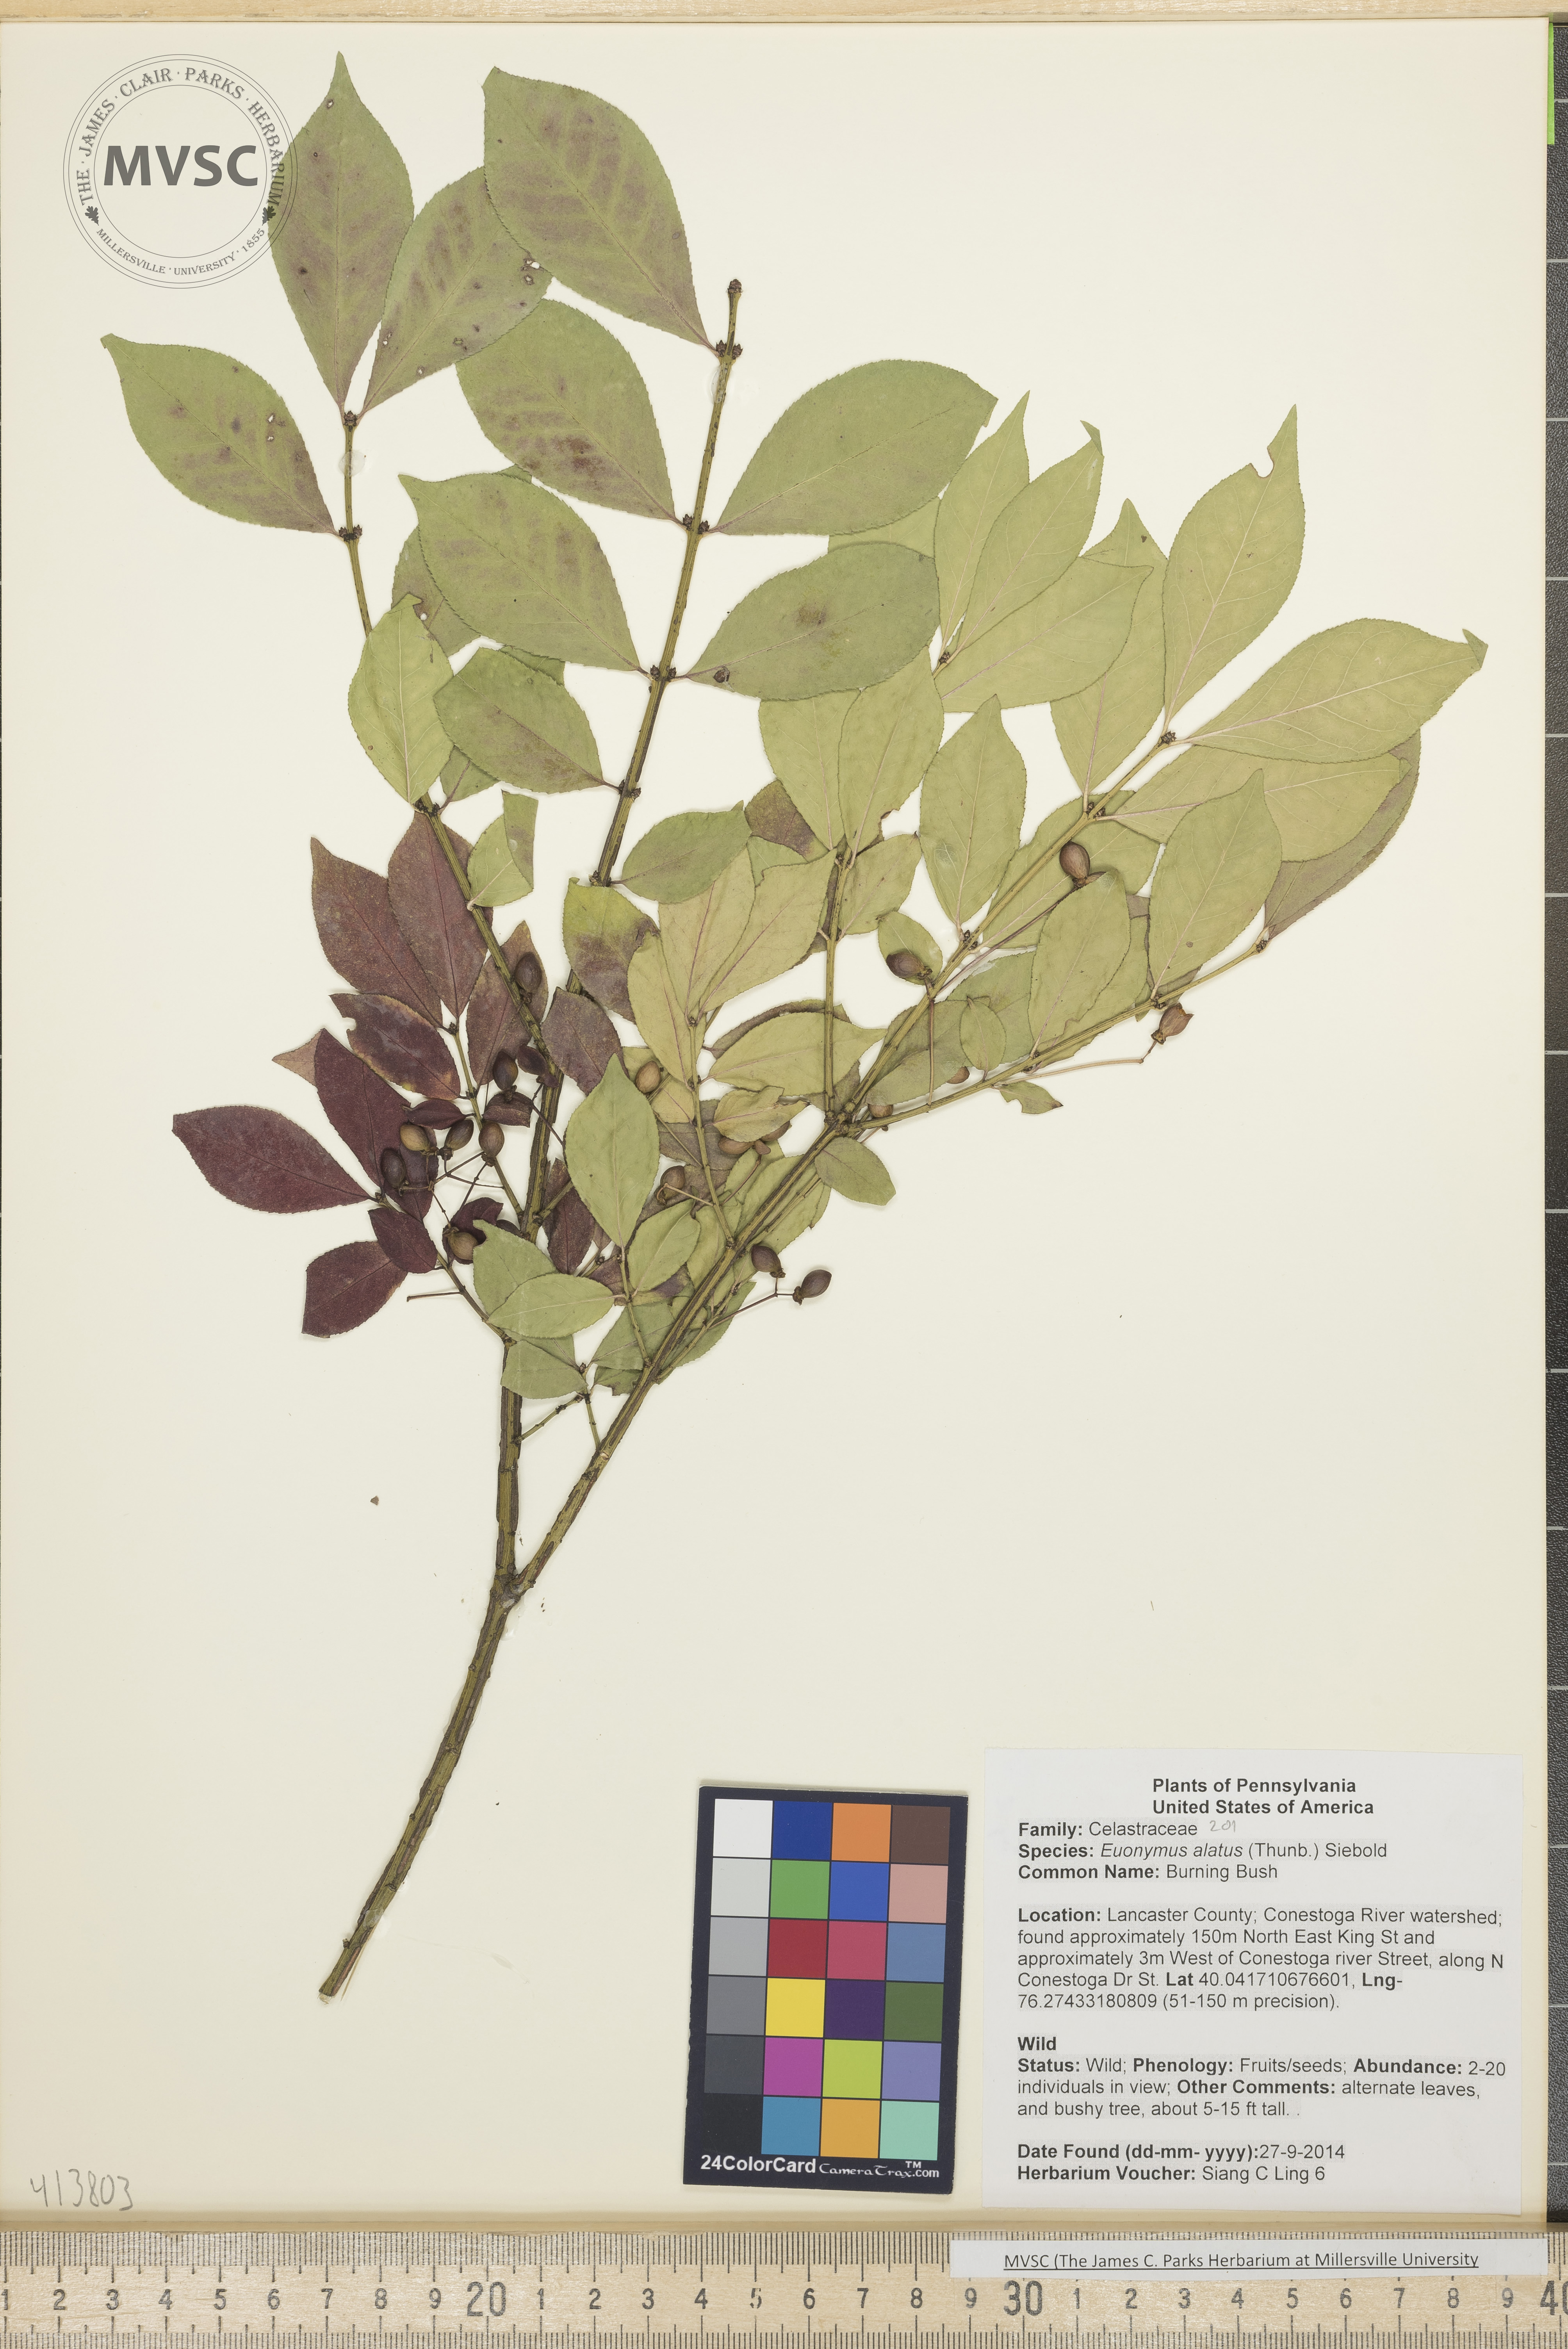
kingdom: Plantae
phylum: Tracheophyta
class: Magnoliopsida
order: Celastrales
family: Celastraceae
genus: Euonymus
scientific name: Euonymus alatus
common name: Burning Bush
